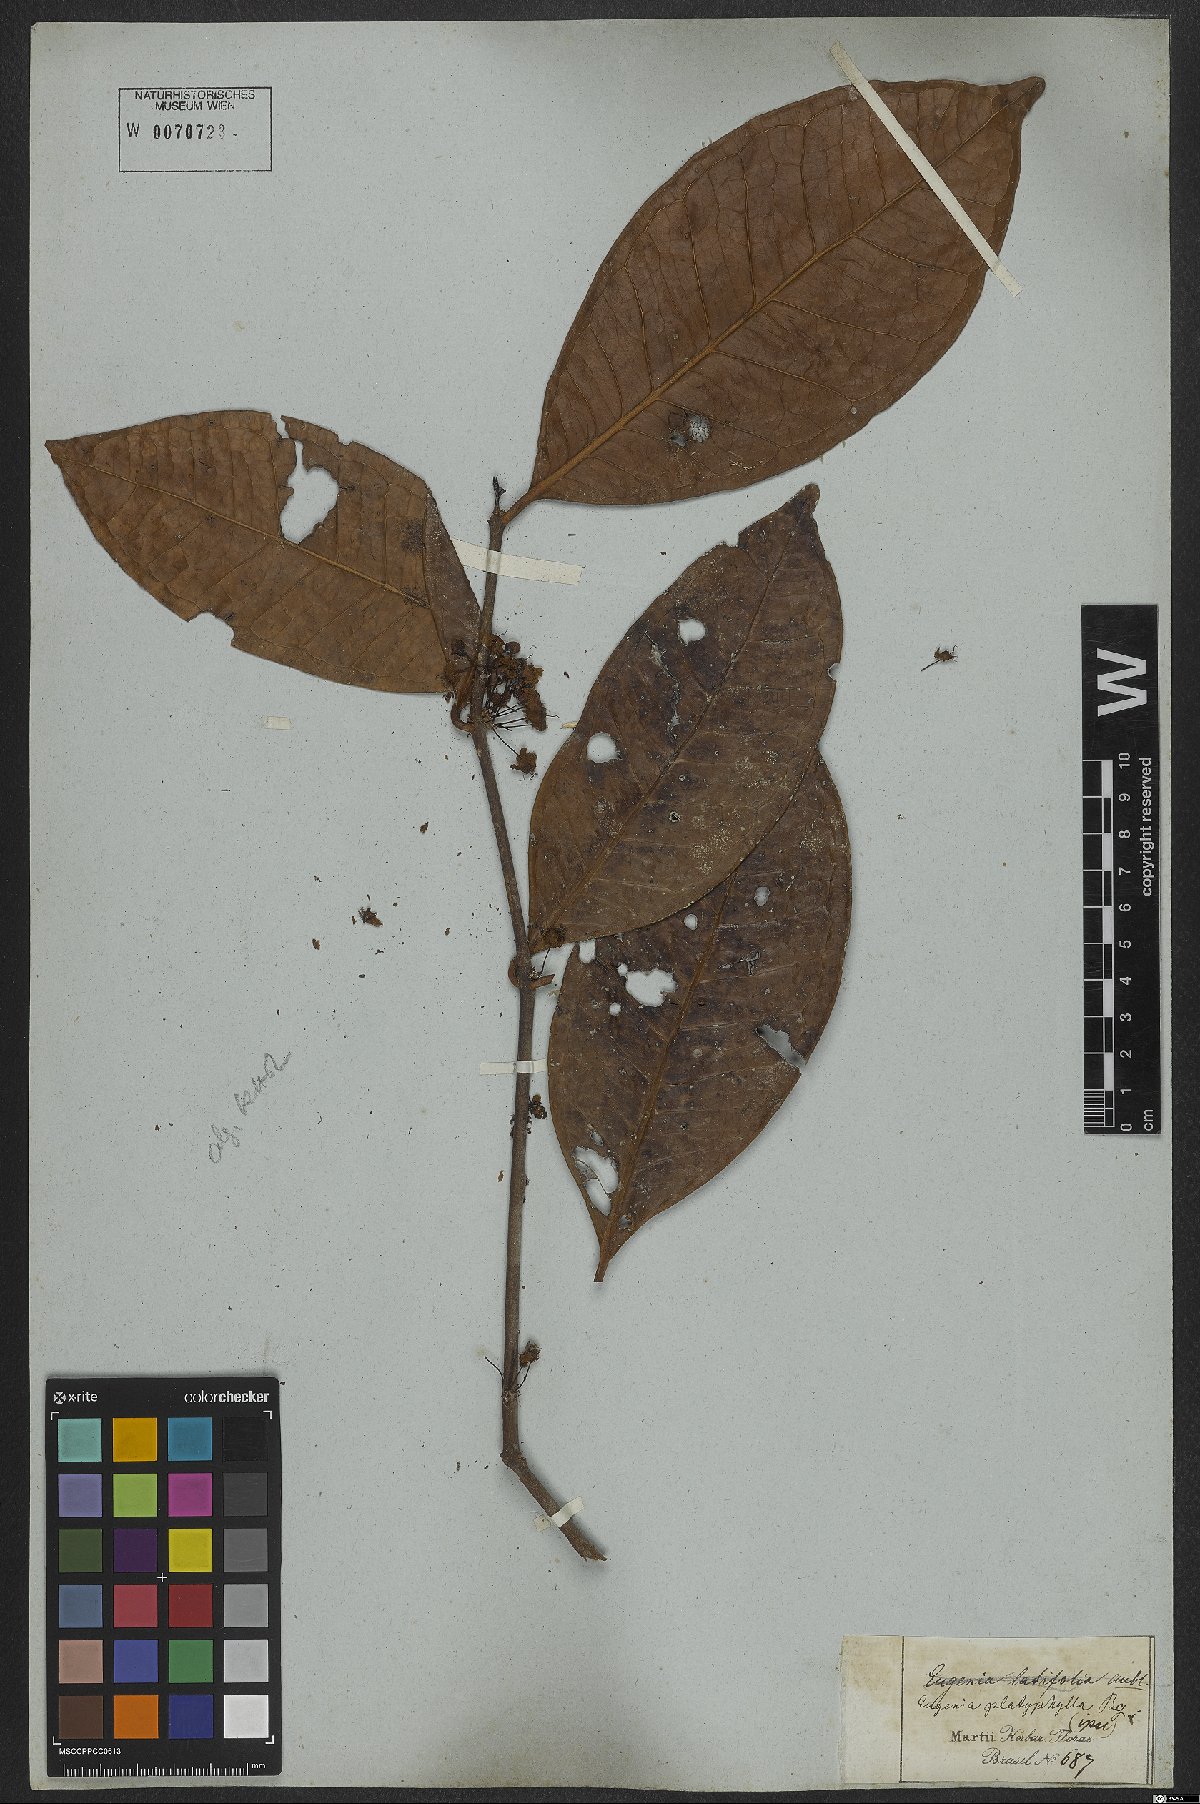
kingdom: Plantae
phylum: Tracheophyta
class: Magnoliopsida
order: Myrtales
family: Myrtaceae
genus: Eugenia
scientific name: Eugenia platyphylla
